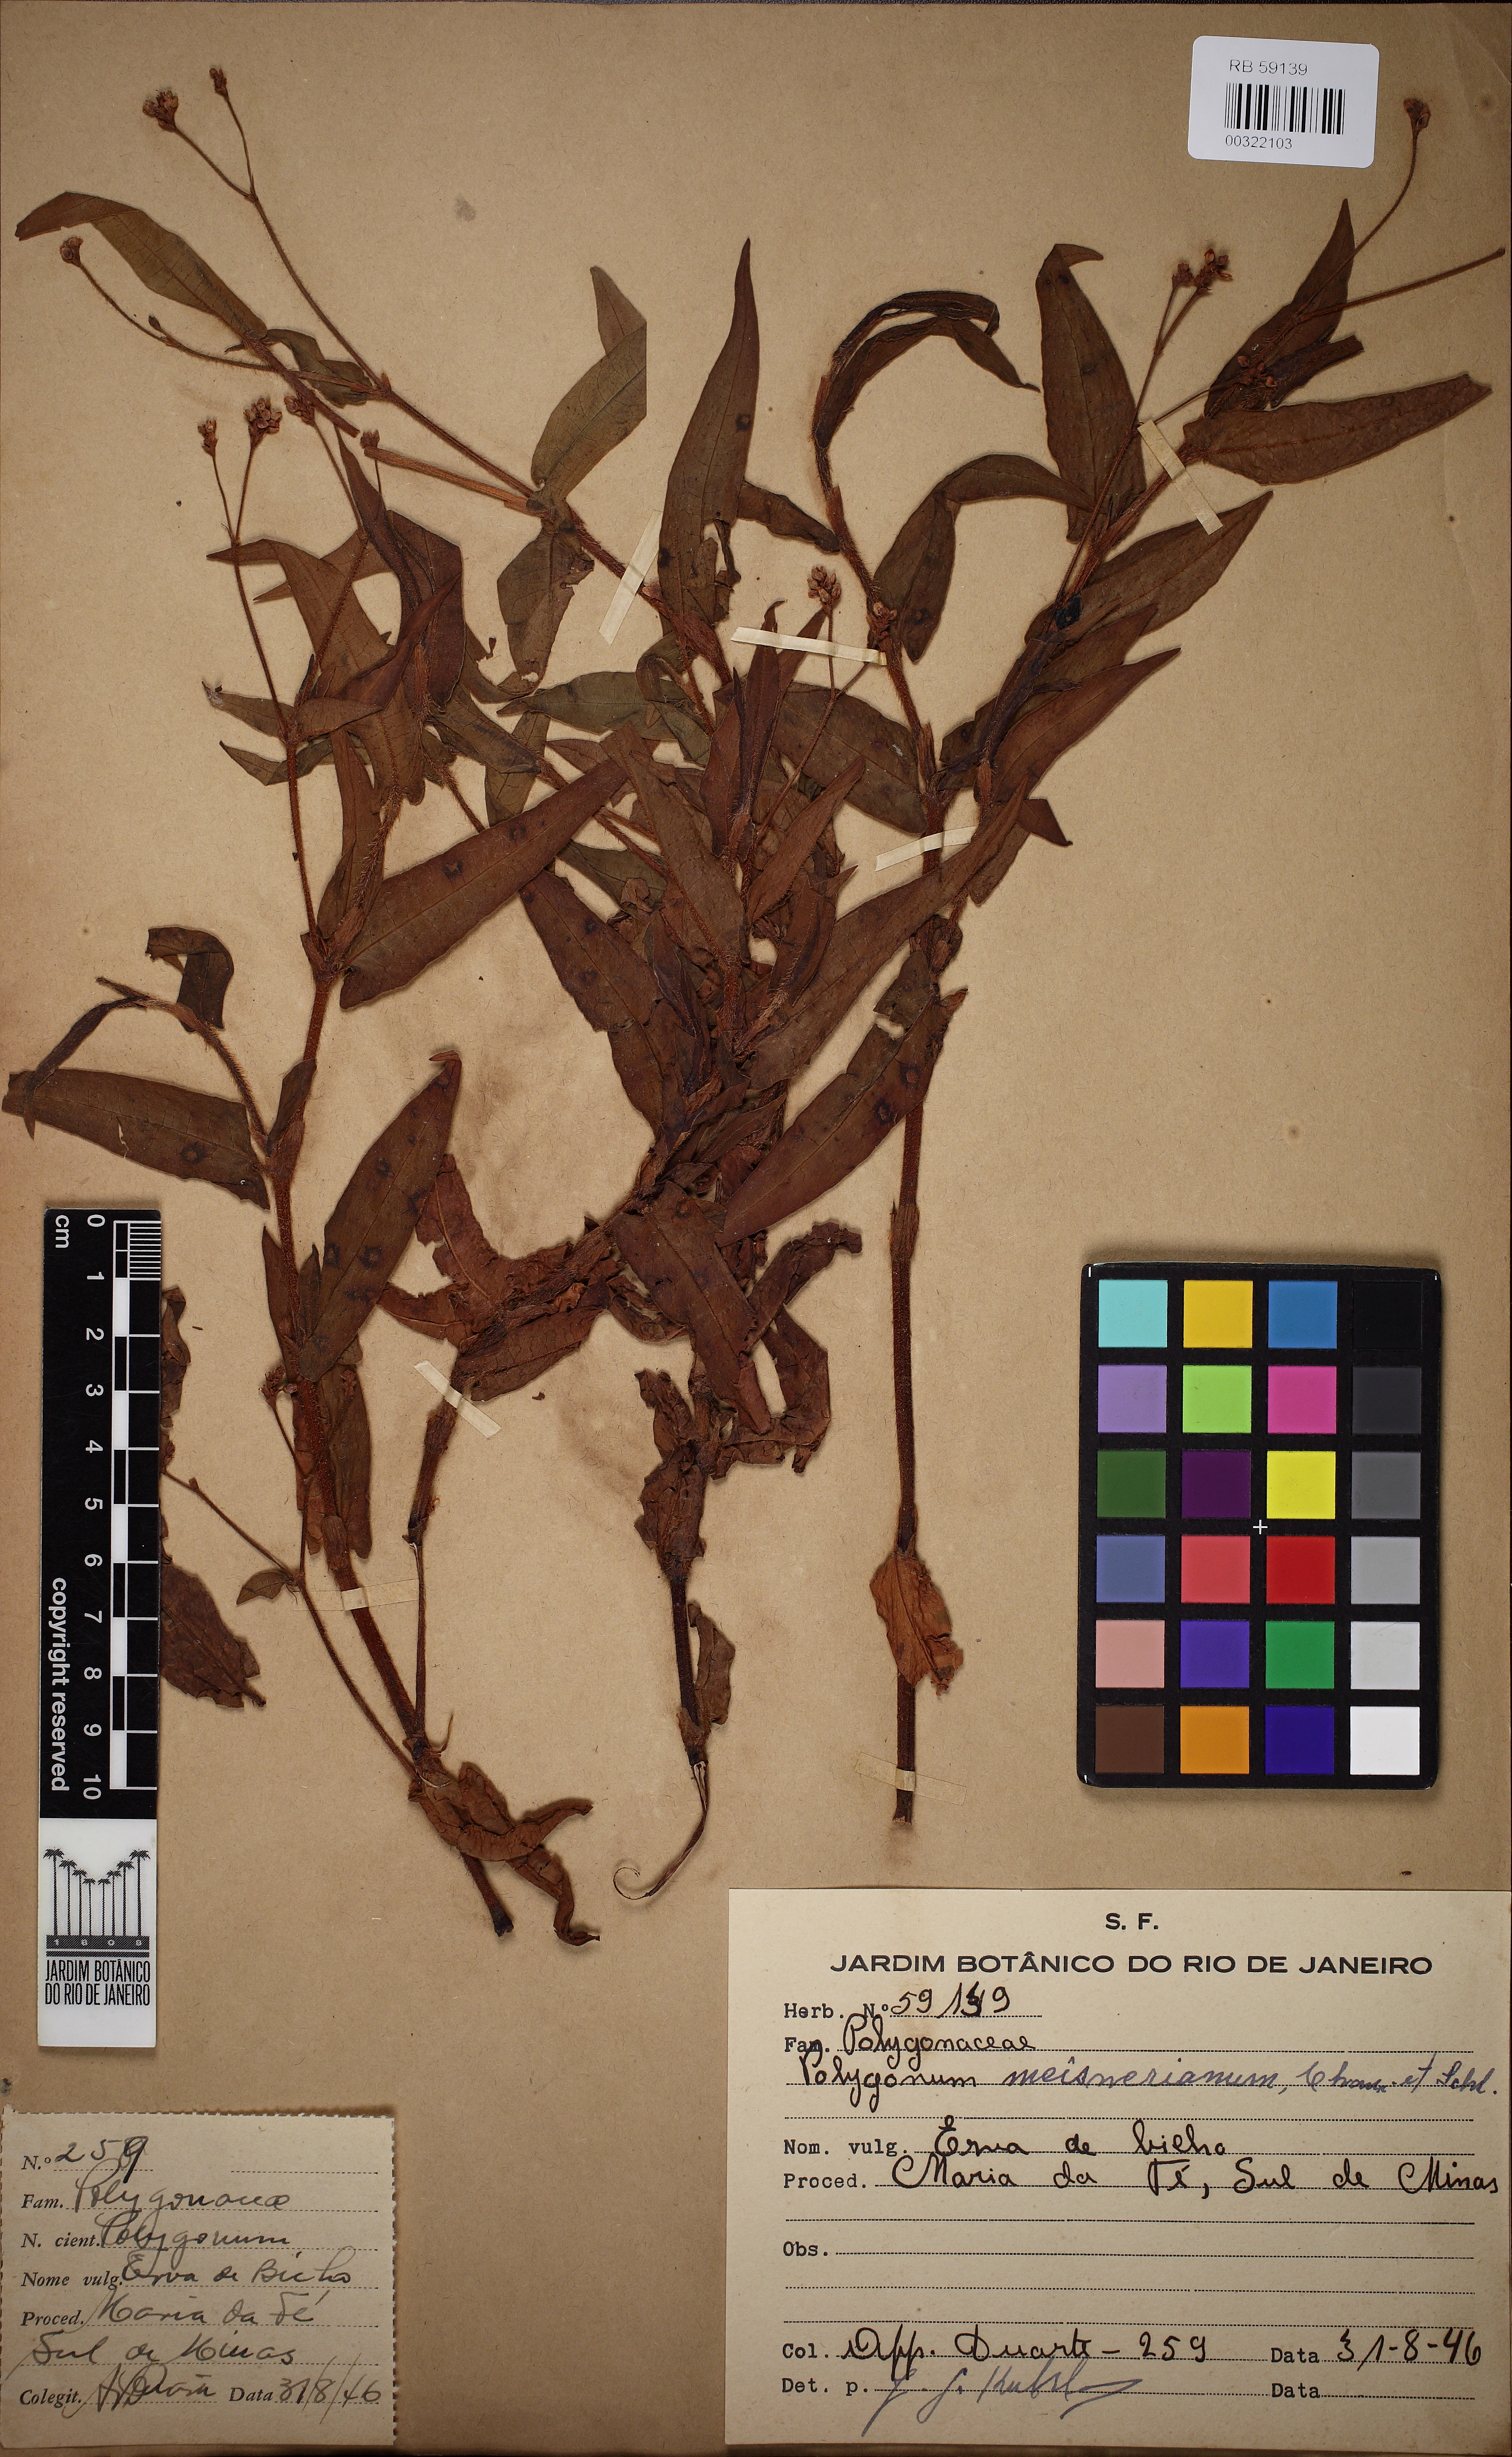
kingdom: Plantae
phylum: Tracheophyta
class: Magnoliopsida
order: Caryophyllales
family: Polygonaceae
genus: Persicaria
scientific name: Persicaria meisneriana
